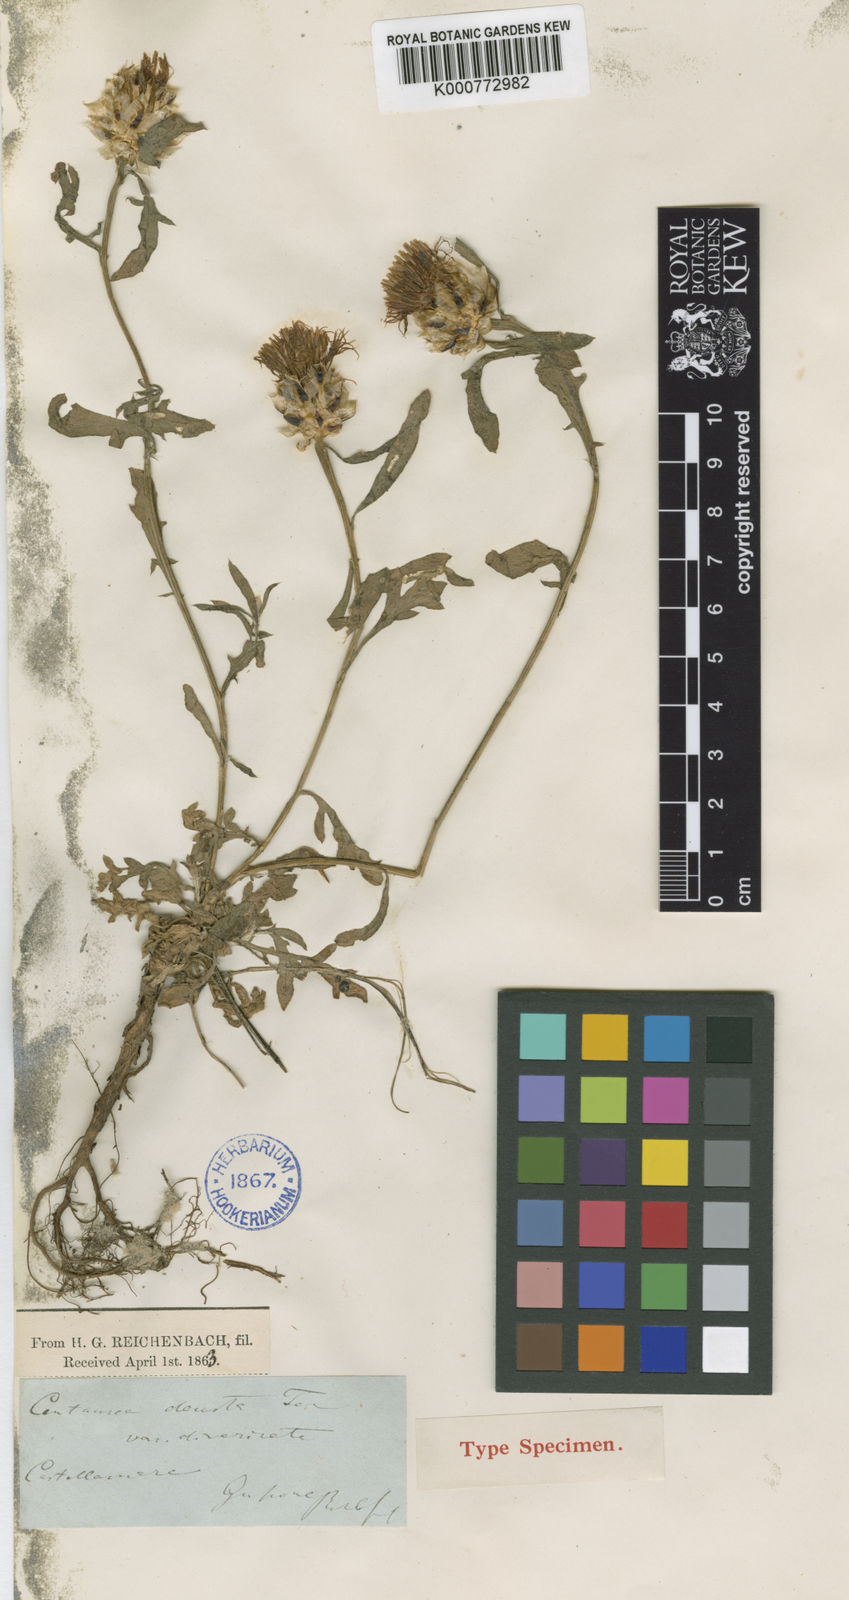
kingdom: Plantae
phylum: Tracheophyta
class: Magnoliopsida
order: Asterales
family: Asteraceae
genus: Centaurea
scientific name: Centaurea alba
